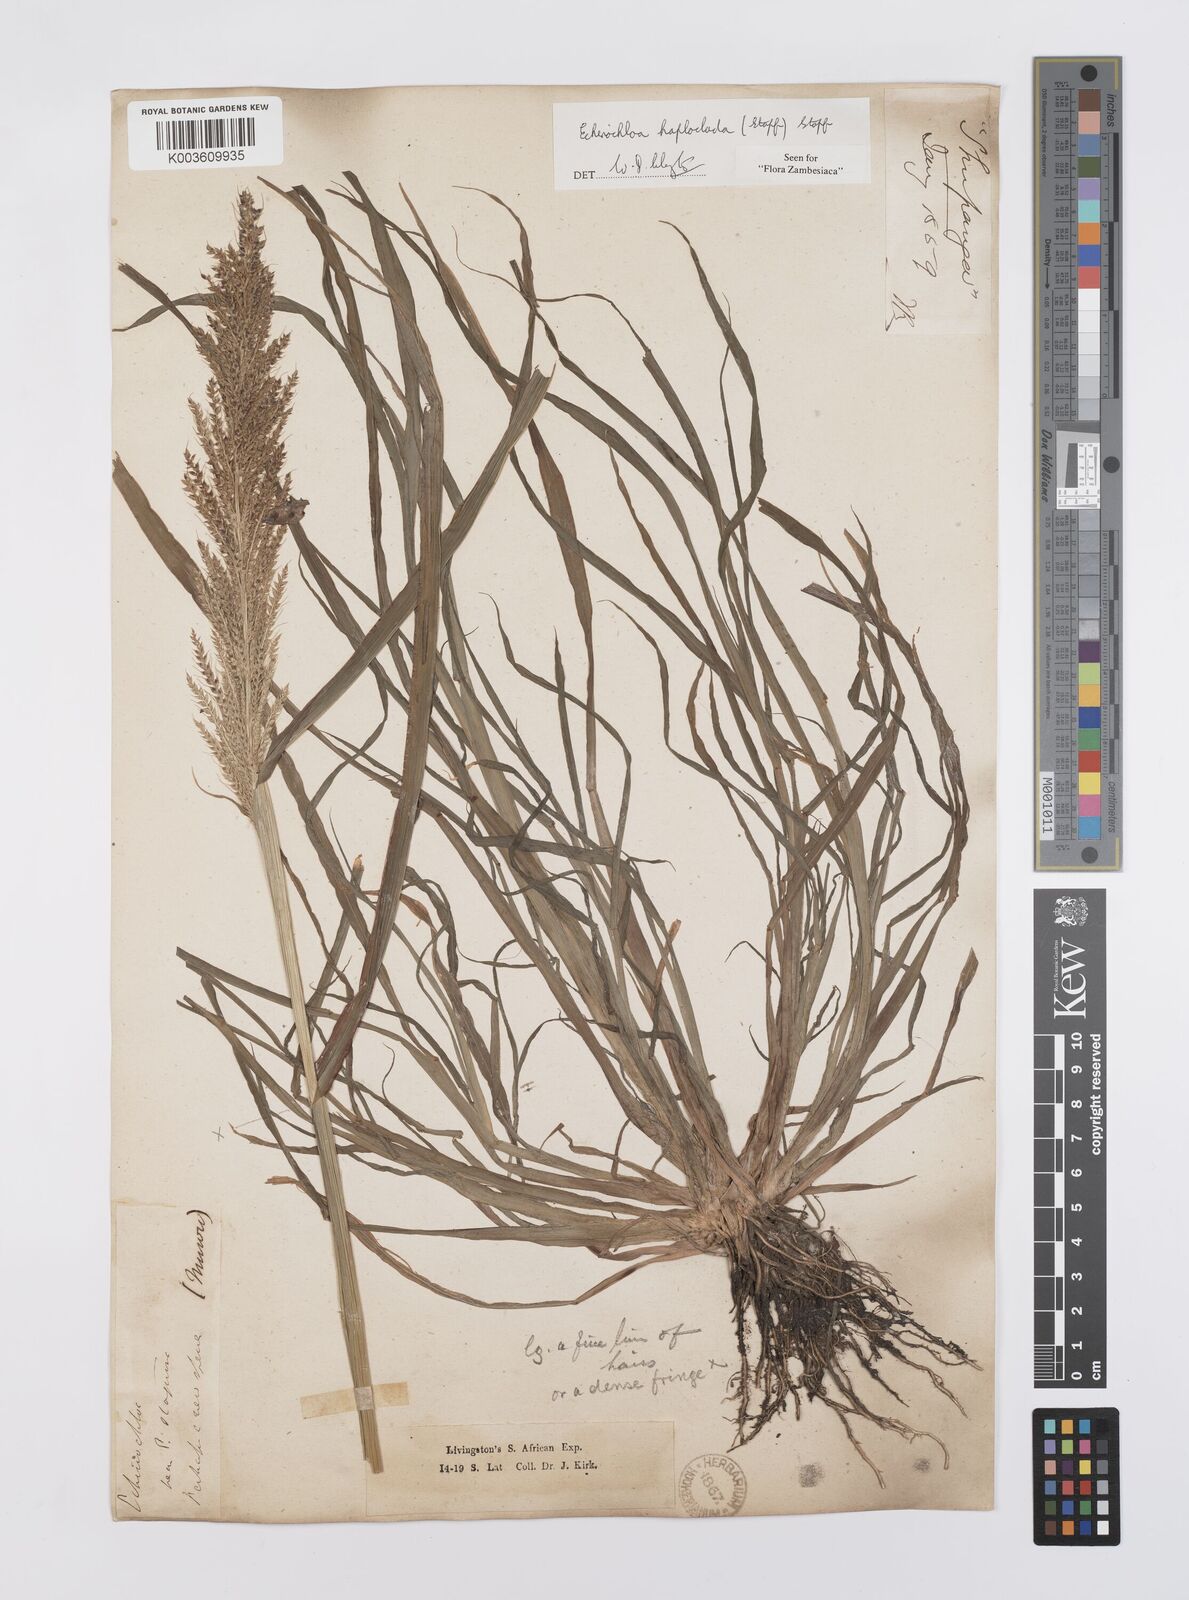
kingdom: Plantae
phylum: Tracheophyta
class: Liliopsida
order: Poales
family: Poaceae
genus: Echinochloa
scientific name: Echinochloa haploclada
